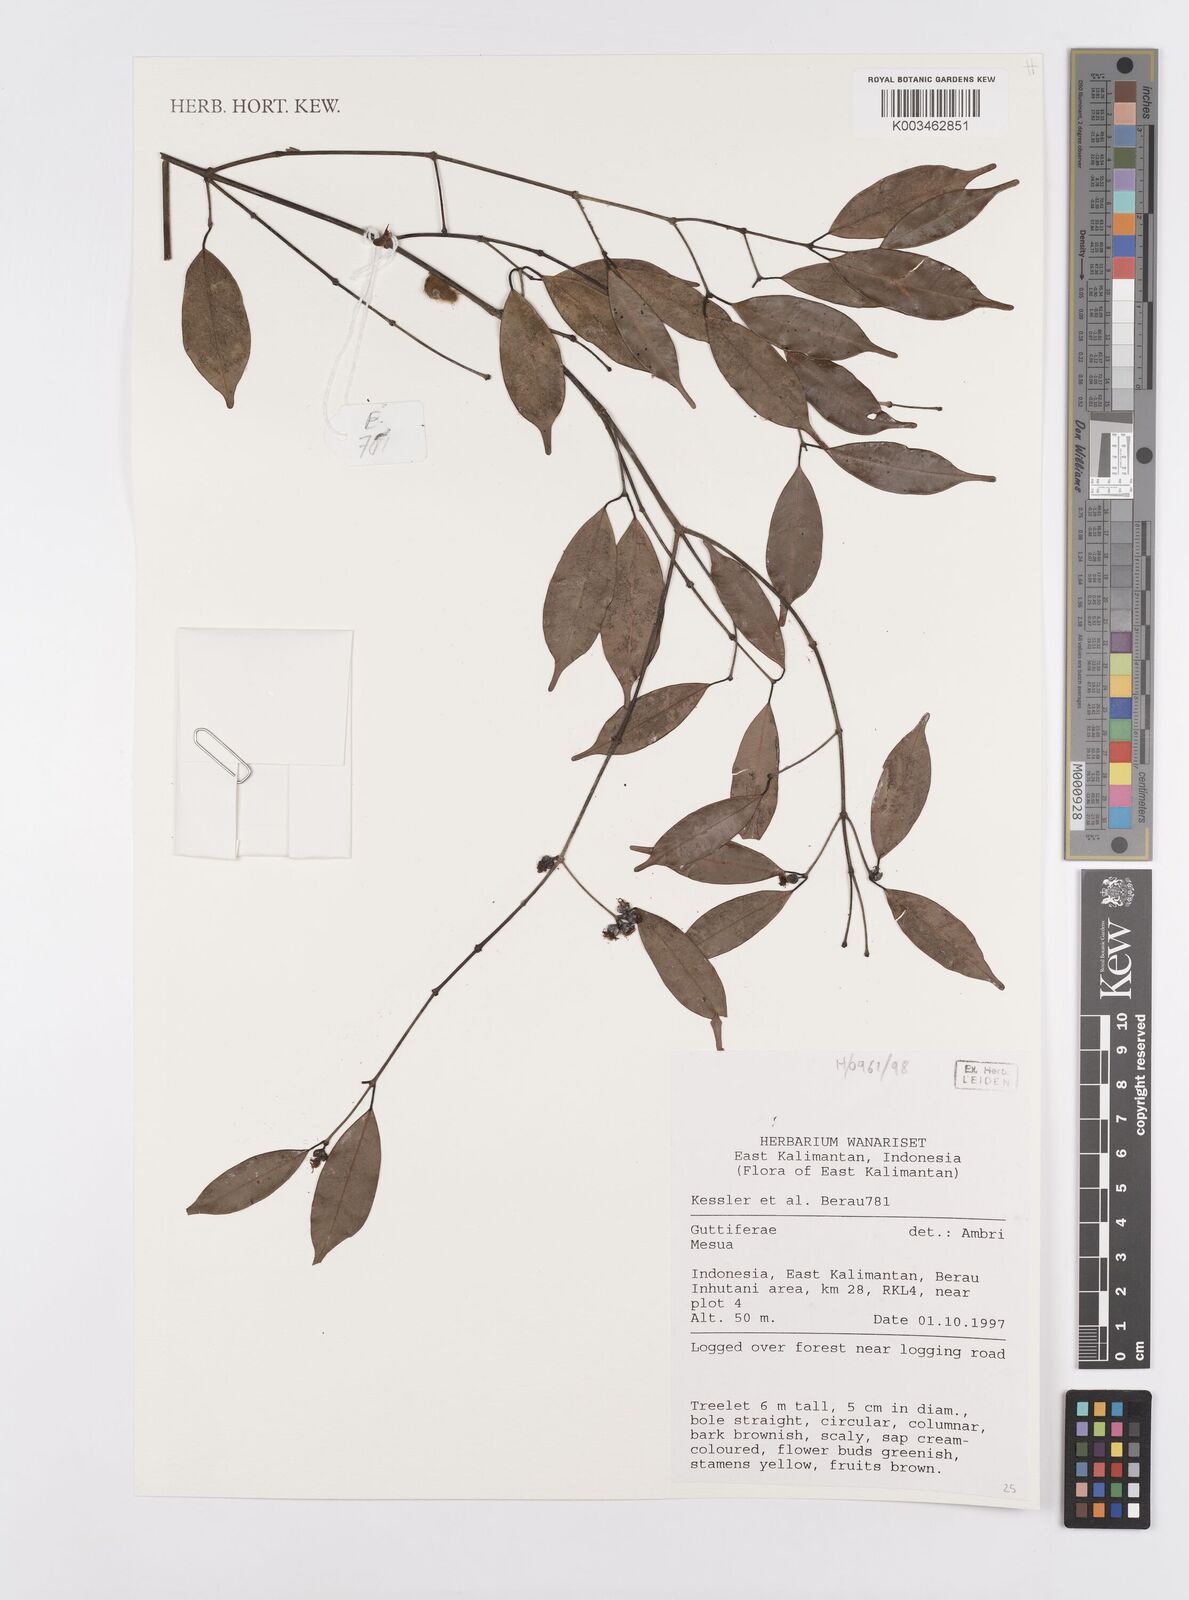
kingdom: Plantae
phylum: Tracheophyta
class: Magnoliopsida
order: Malpighiales
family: Calophyllaceae
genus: Mesua
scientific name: Mesua
